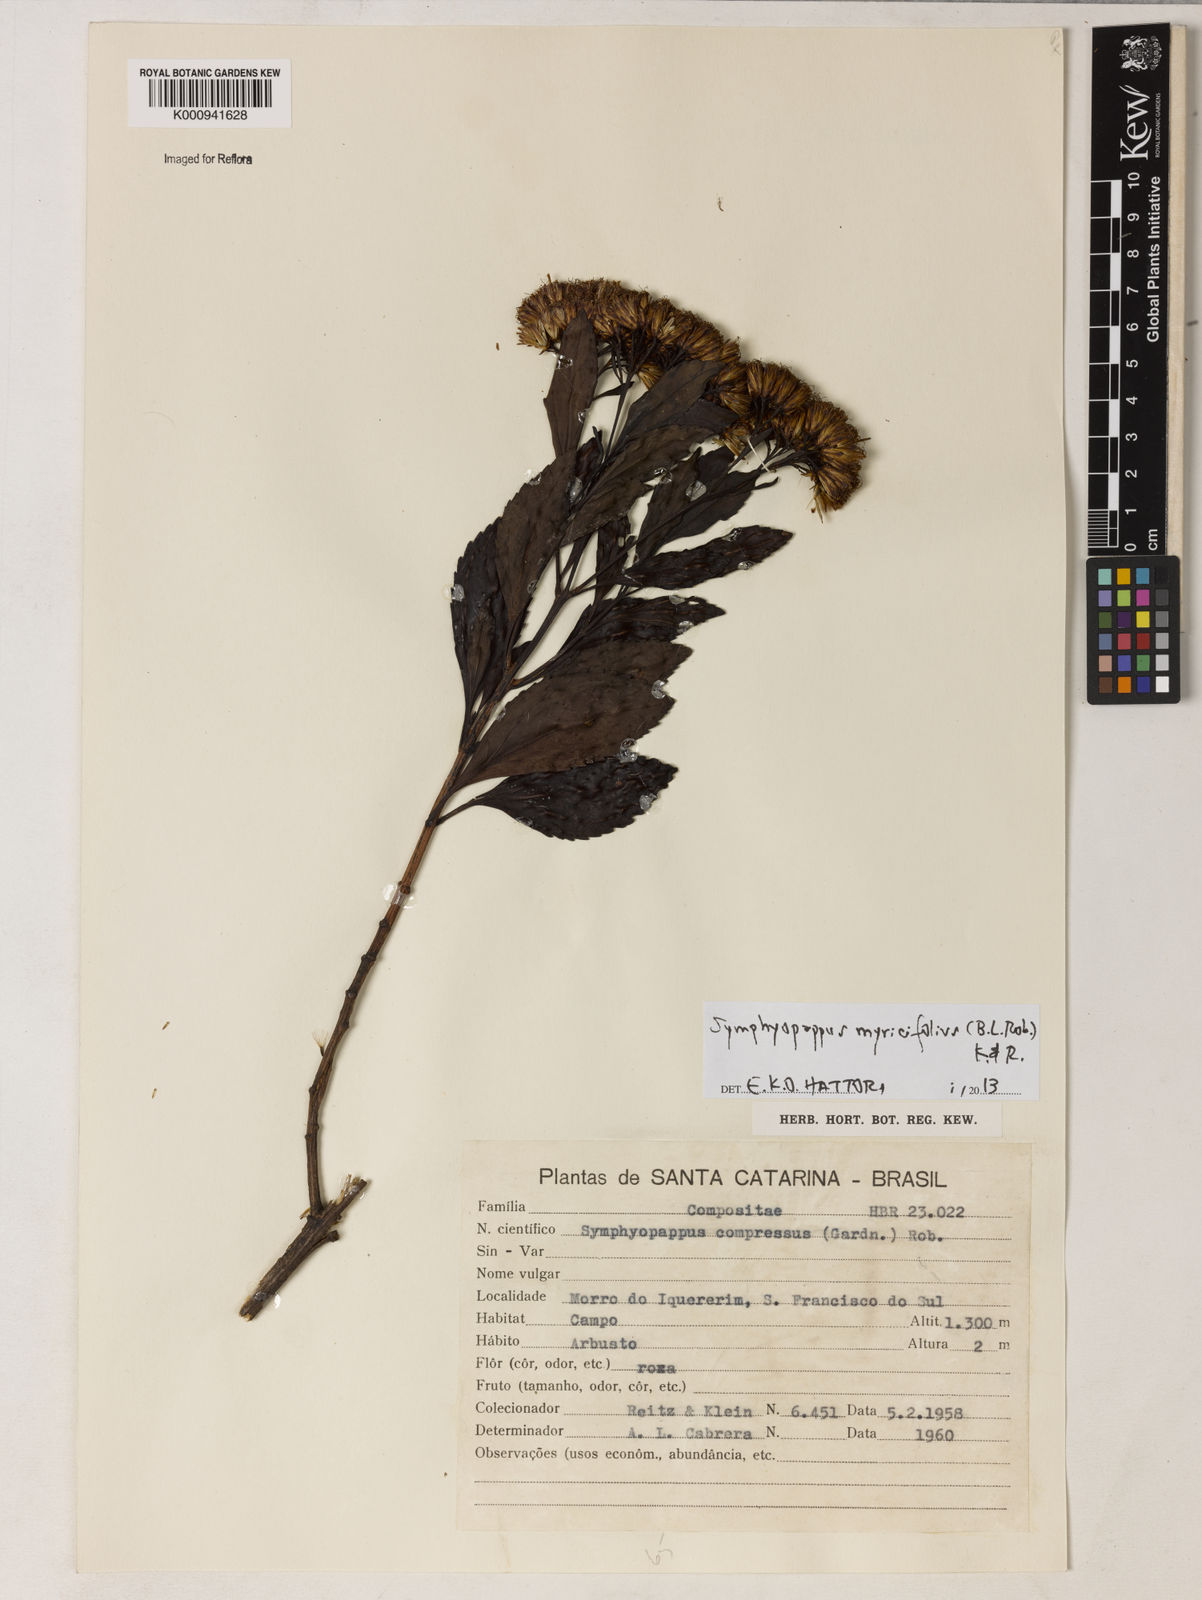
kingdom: Plantae
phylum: Tracheophyta
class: Magnoliopsida
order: Asterales
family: Asteraceae
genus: Symphyopappus
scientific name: Symphyopappus myricifolius
